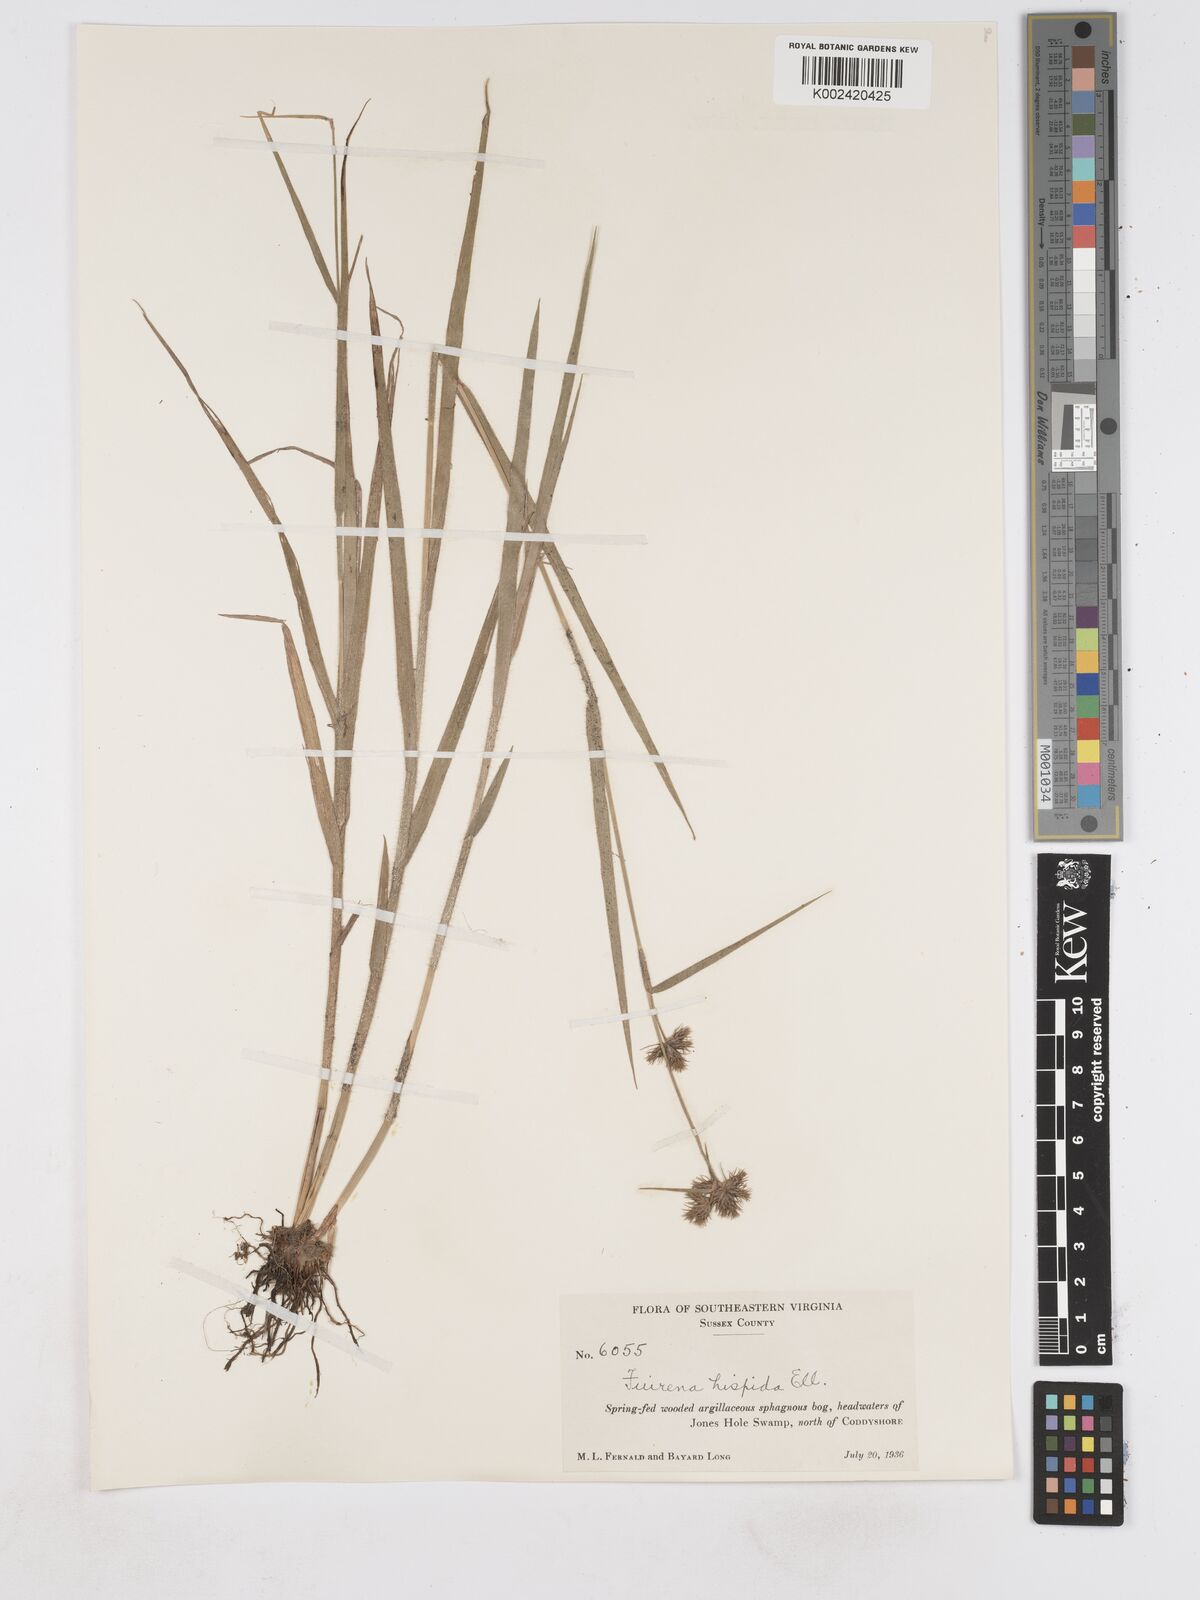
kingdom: Plantae
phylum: Tracheophyta
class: Liliopsida
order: Poales
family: Cyperaceae
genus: Fuirena
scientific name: Fuirena squarrosa
